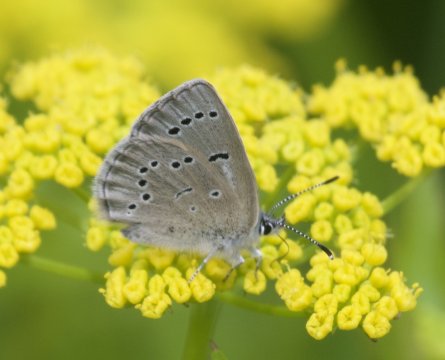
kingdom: Animalia
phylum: Arthropoda
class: Insecta
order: Lepidoptera
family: Lycaenidae
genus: Glaucopsyche
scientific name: Glaucopsyche lygdamus
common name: Silvery Blue
